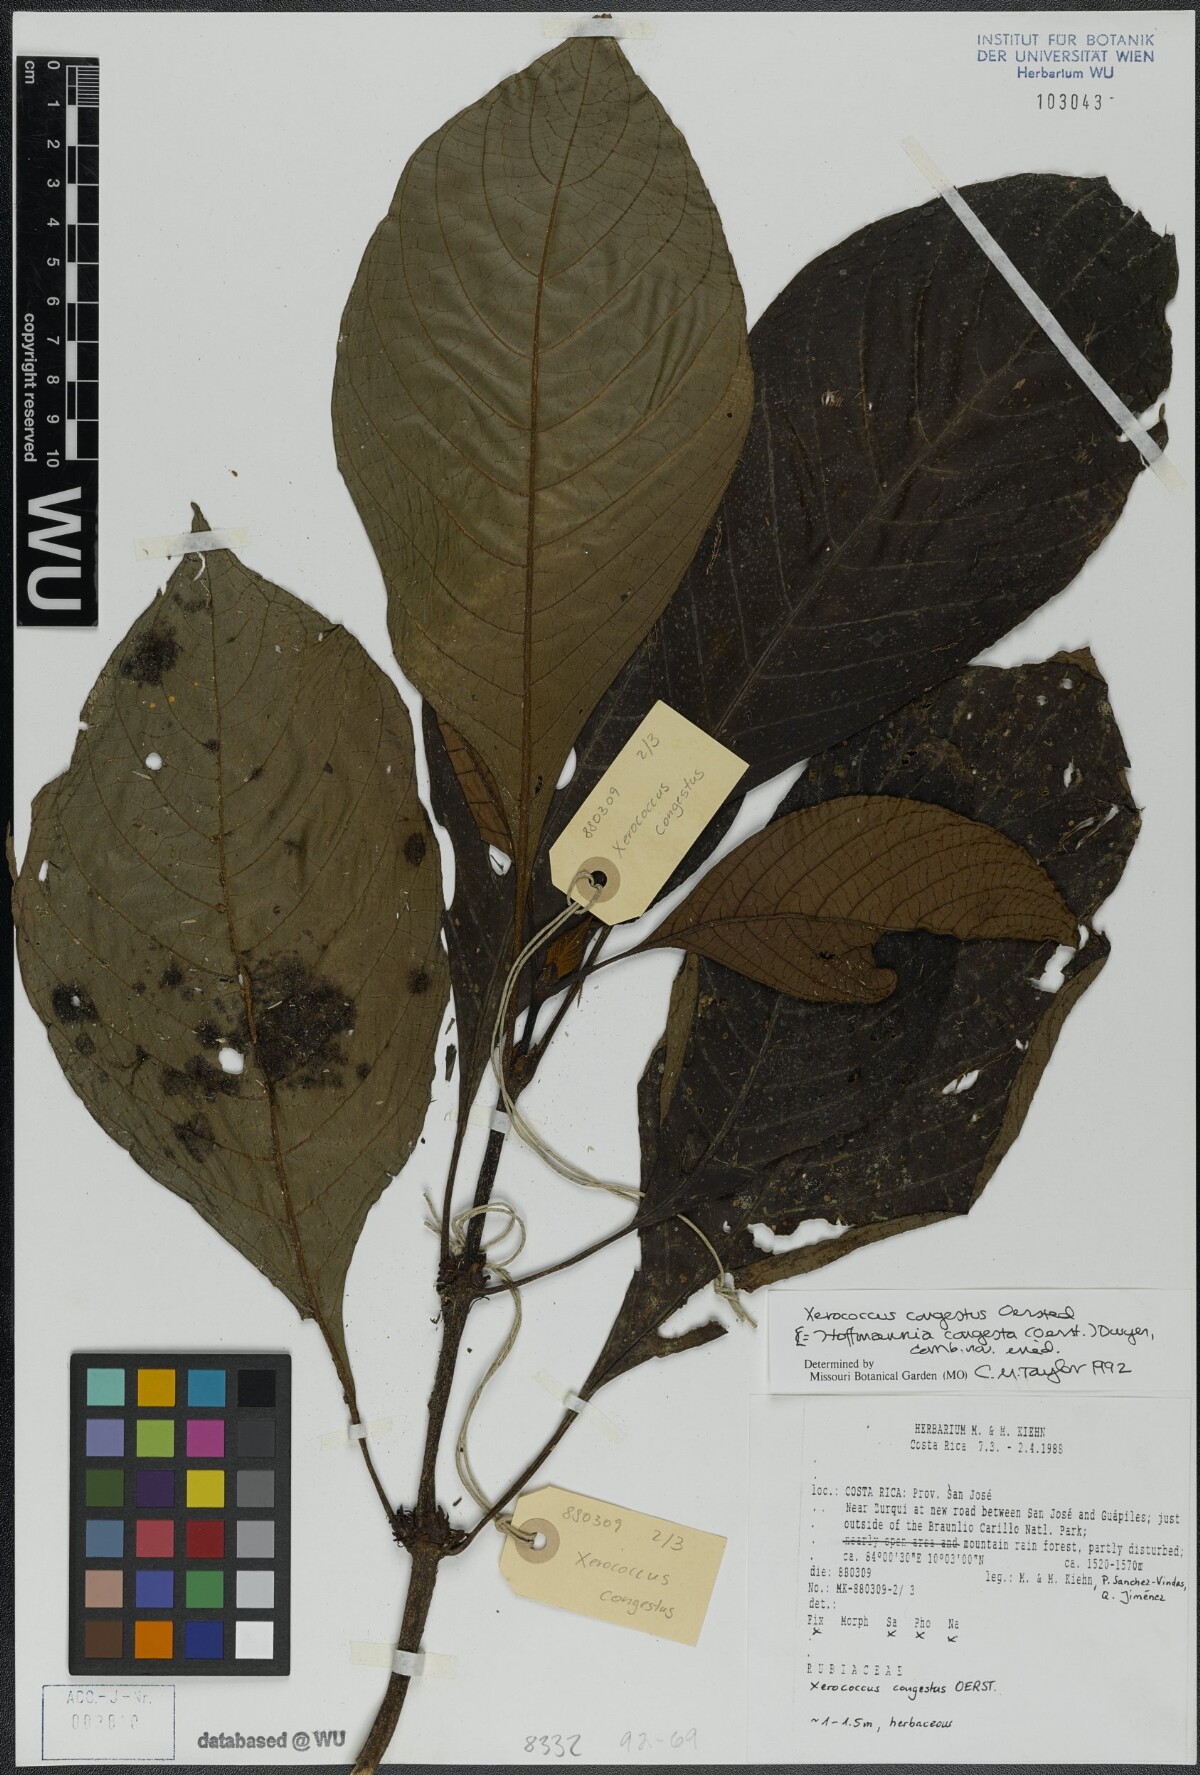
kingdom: Plantae
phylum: Tracheophyta
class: Magnoliopsida
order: Gentianales
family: Rubiaceae
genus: Hoffmannia
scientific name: Hoffmannia congesta
